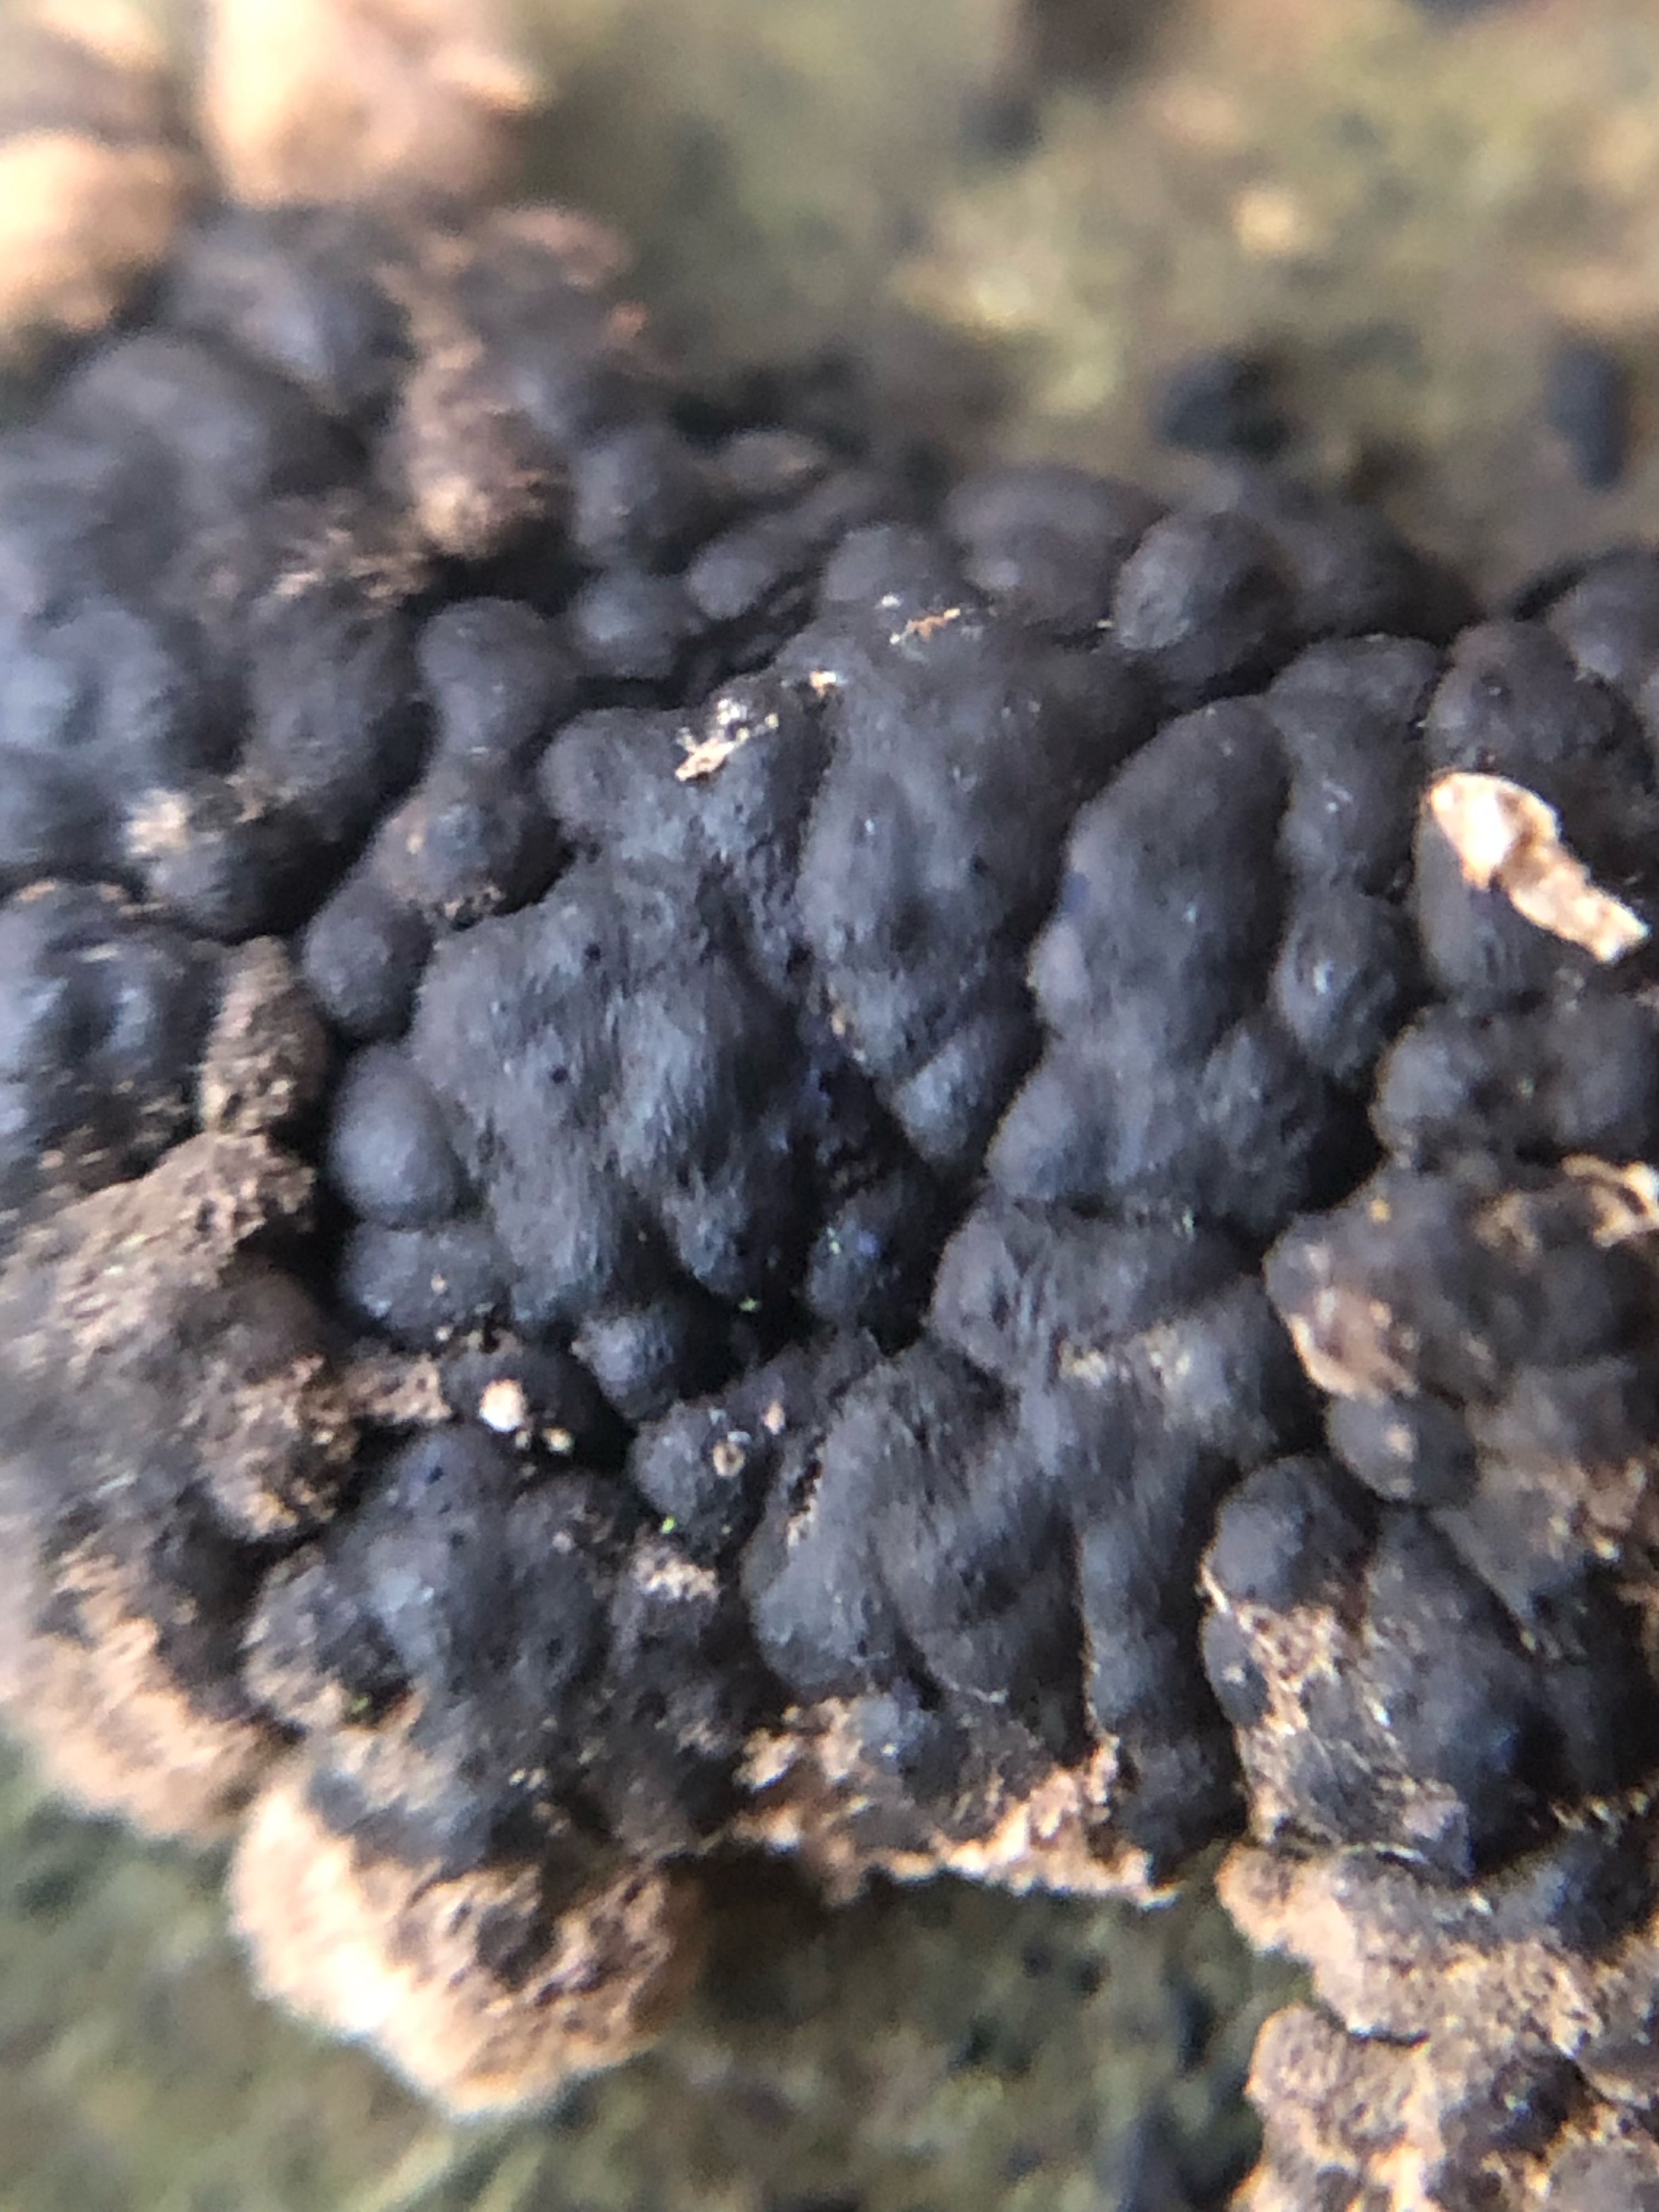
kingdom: Fungi
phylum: Ascomycota
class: Sordariomycetes
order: Xylariales
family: Hypoxylaceae
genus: Jackrogersella
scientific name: Jackrogersella cohaerens
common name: sammenflydende kulbær
